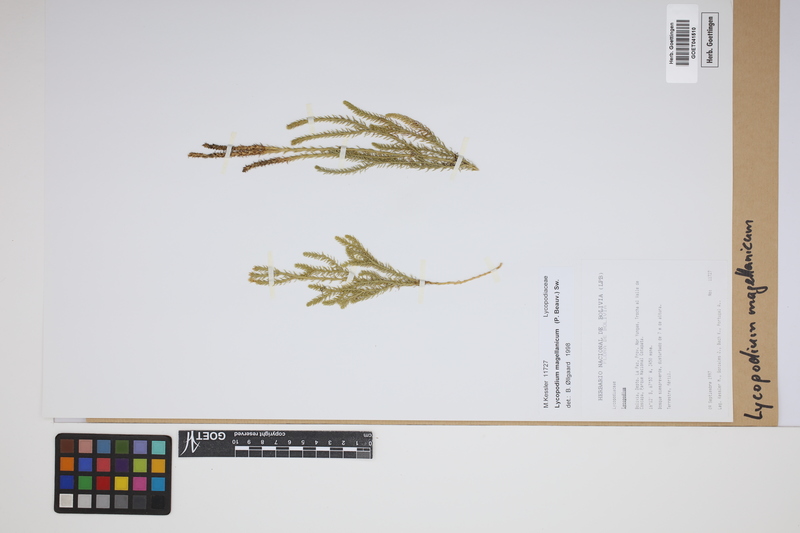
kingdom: Plantae
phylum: Tracheophyta
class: Lycopodiopsida
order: Lycopodiales
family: Lycopodiaceae
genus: Austrolycopodium
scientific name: Austrolycopodium magellanicum
